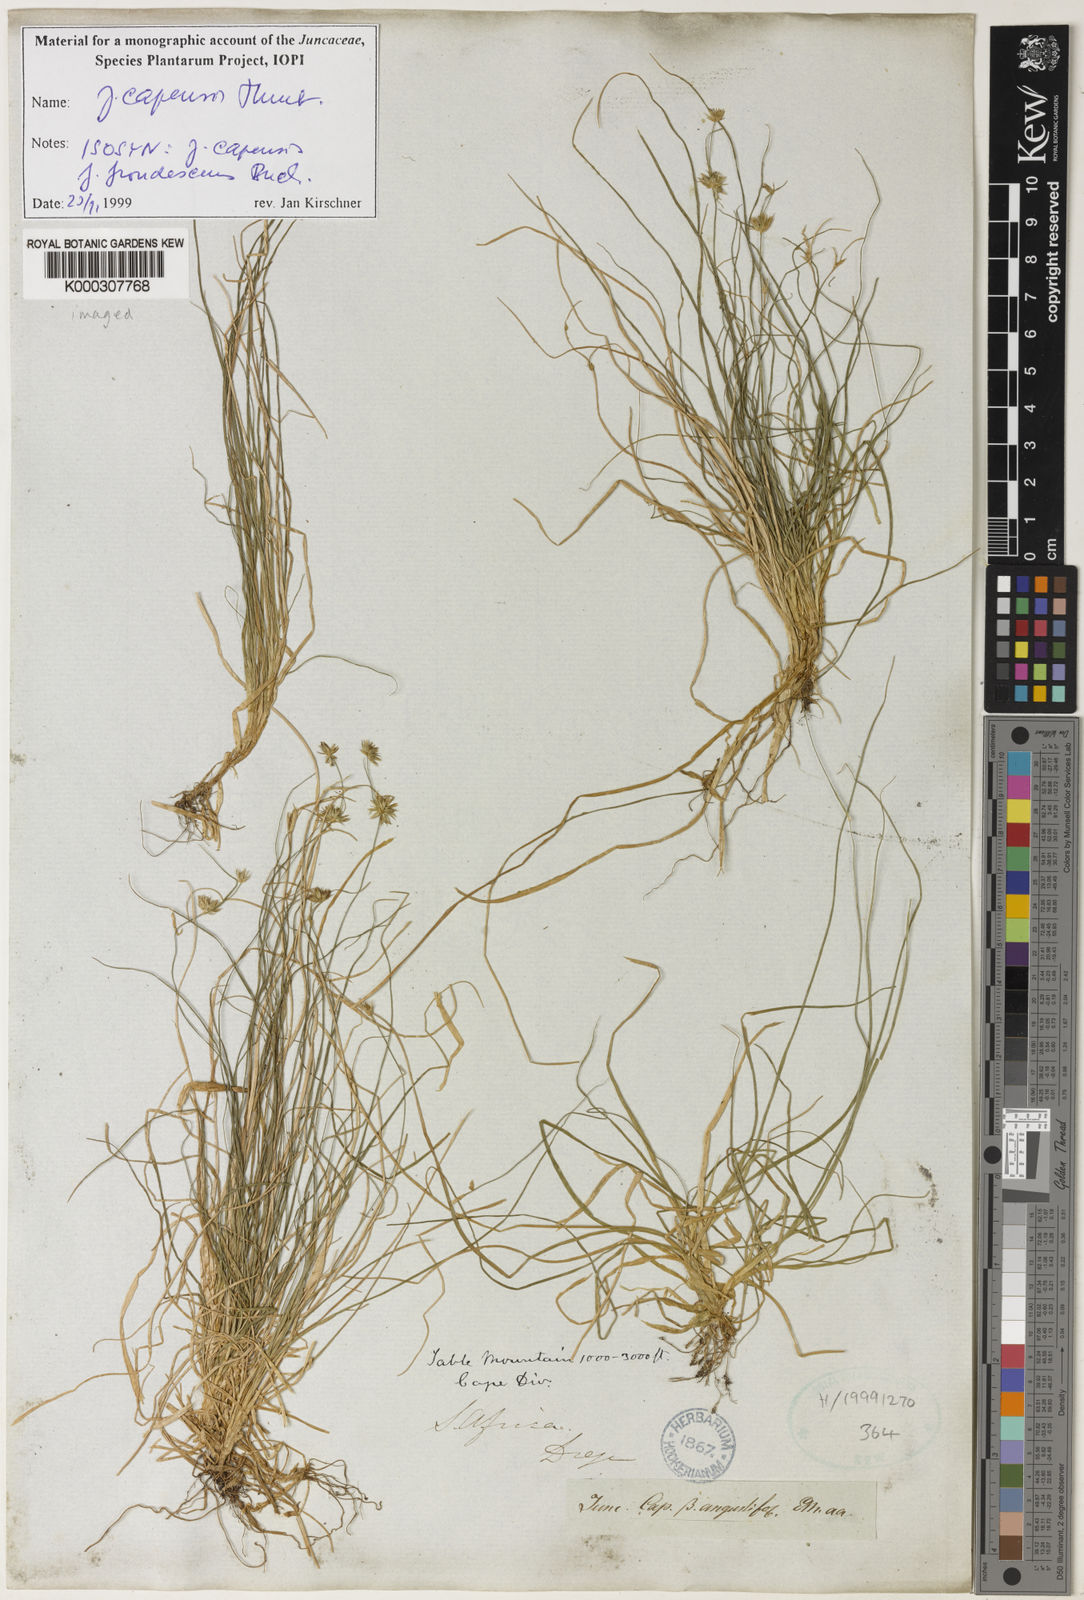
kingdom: Plantae
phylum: Tracheophyta
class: Liliopsida
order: Poales
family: Juncaceae
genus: Juncus
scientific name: Juncus capensis
